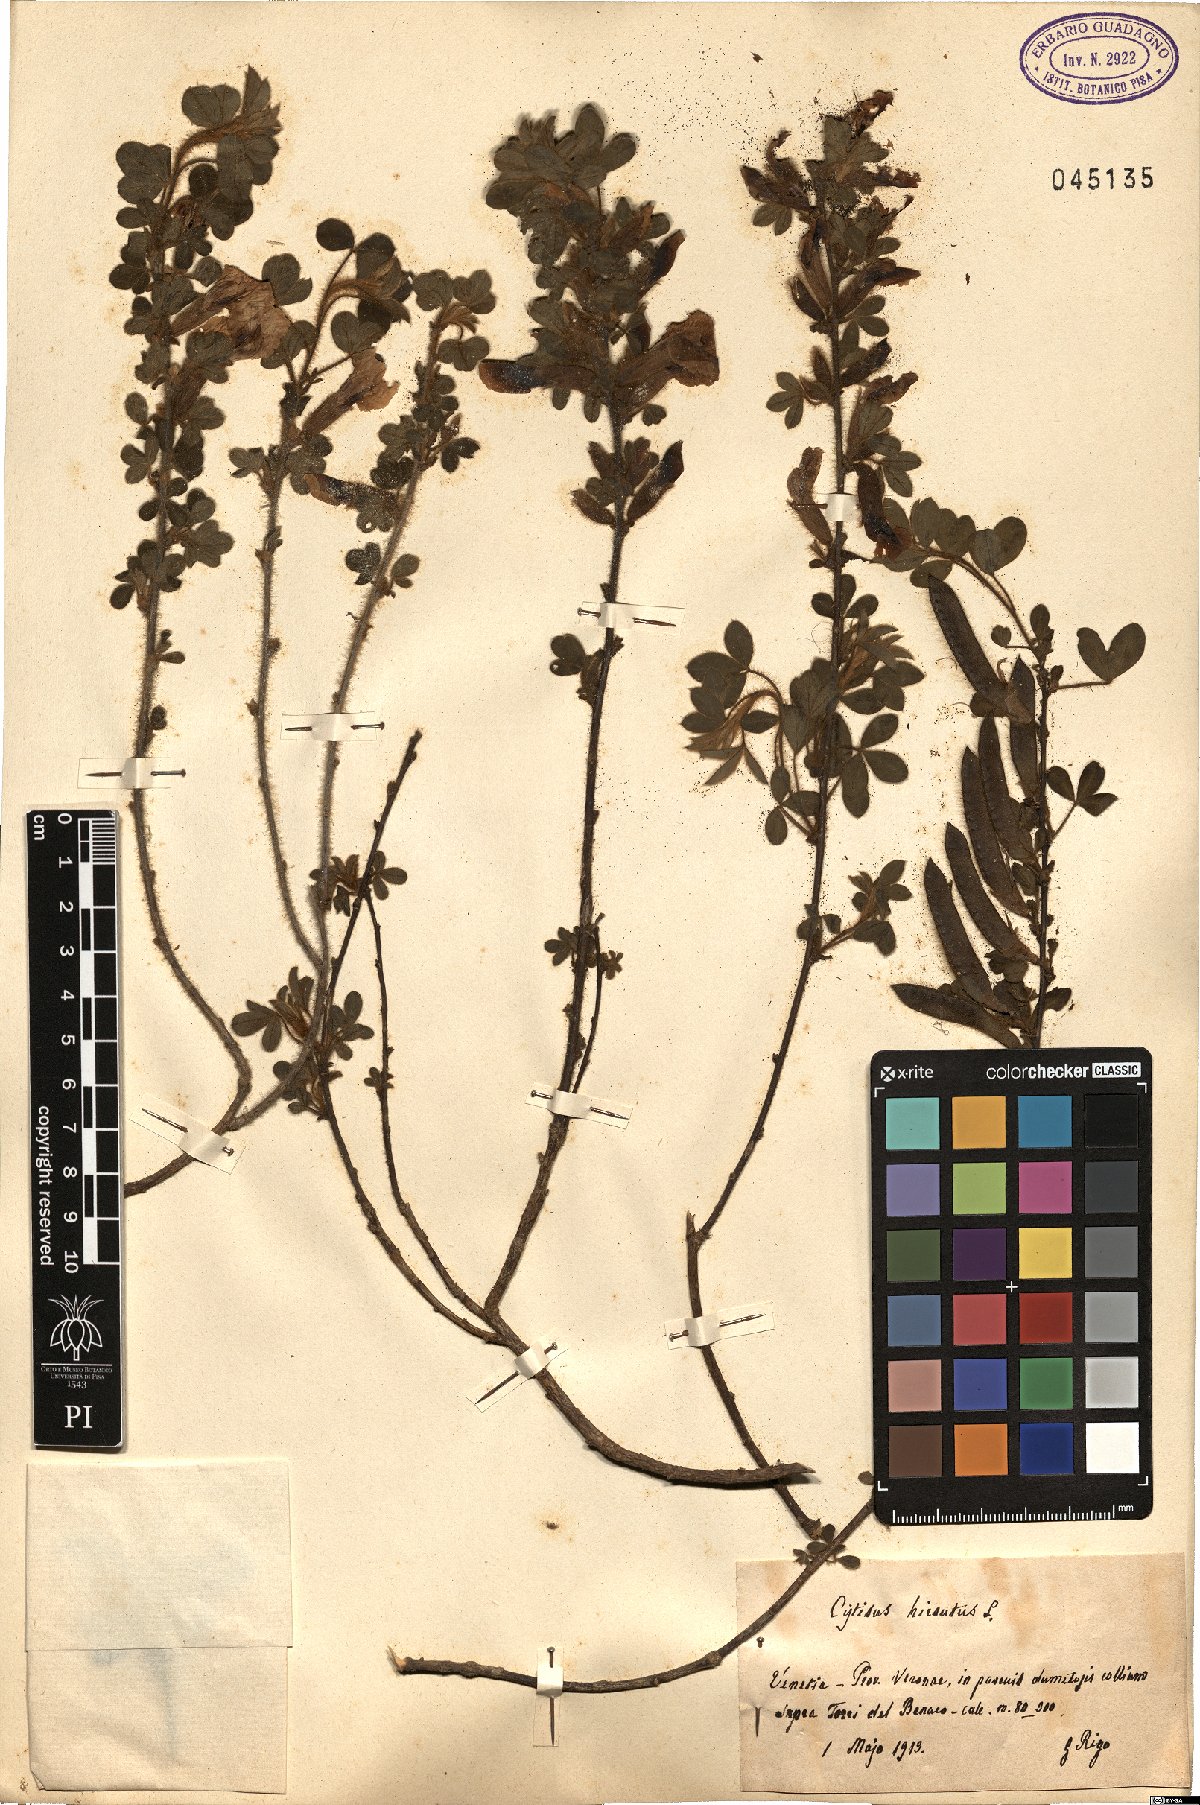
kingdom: Plantae
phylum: Tracheophyta
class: Magnoliopsida
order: Fabales
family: Fabaceae
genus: Chamaecytisus
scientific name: Chamaecytisus hirsutus
